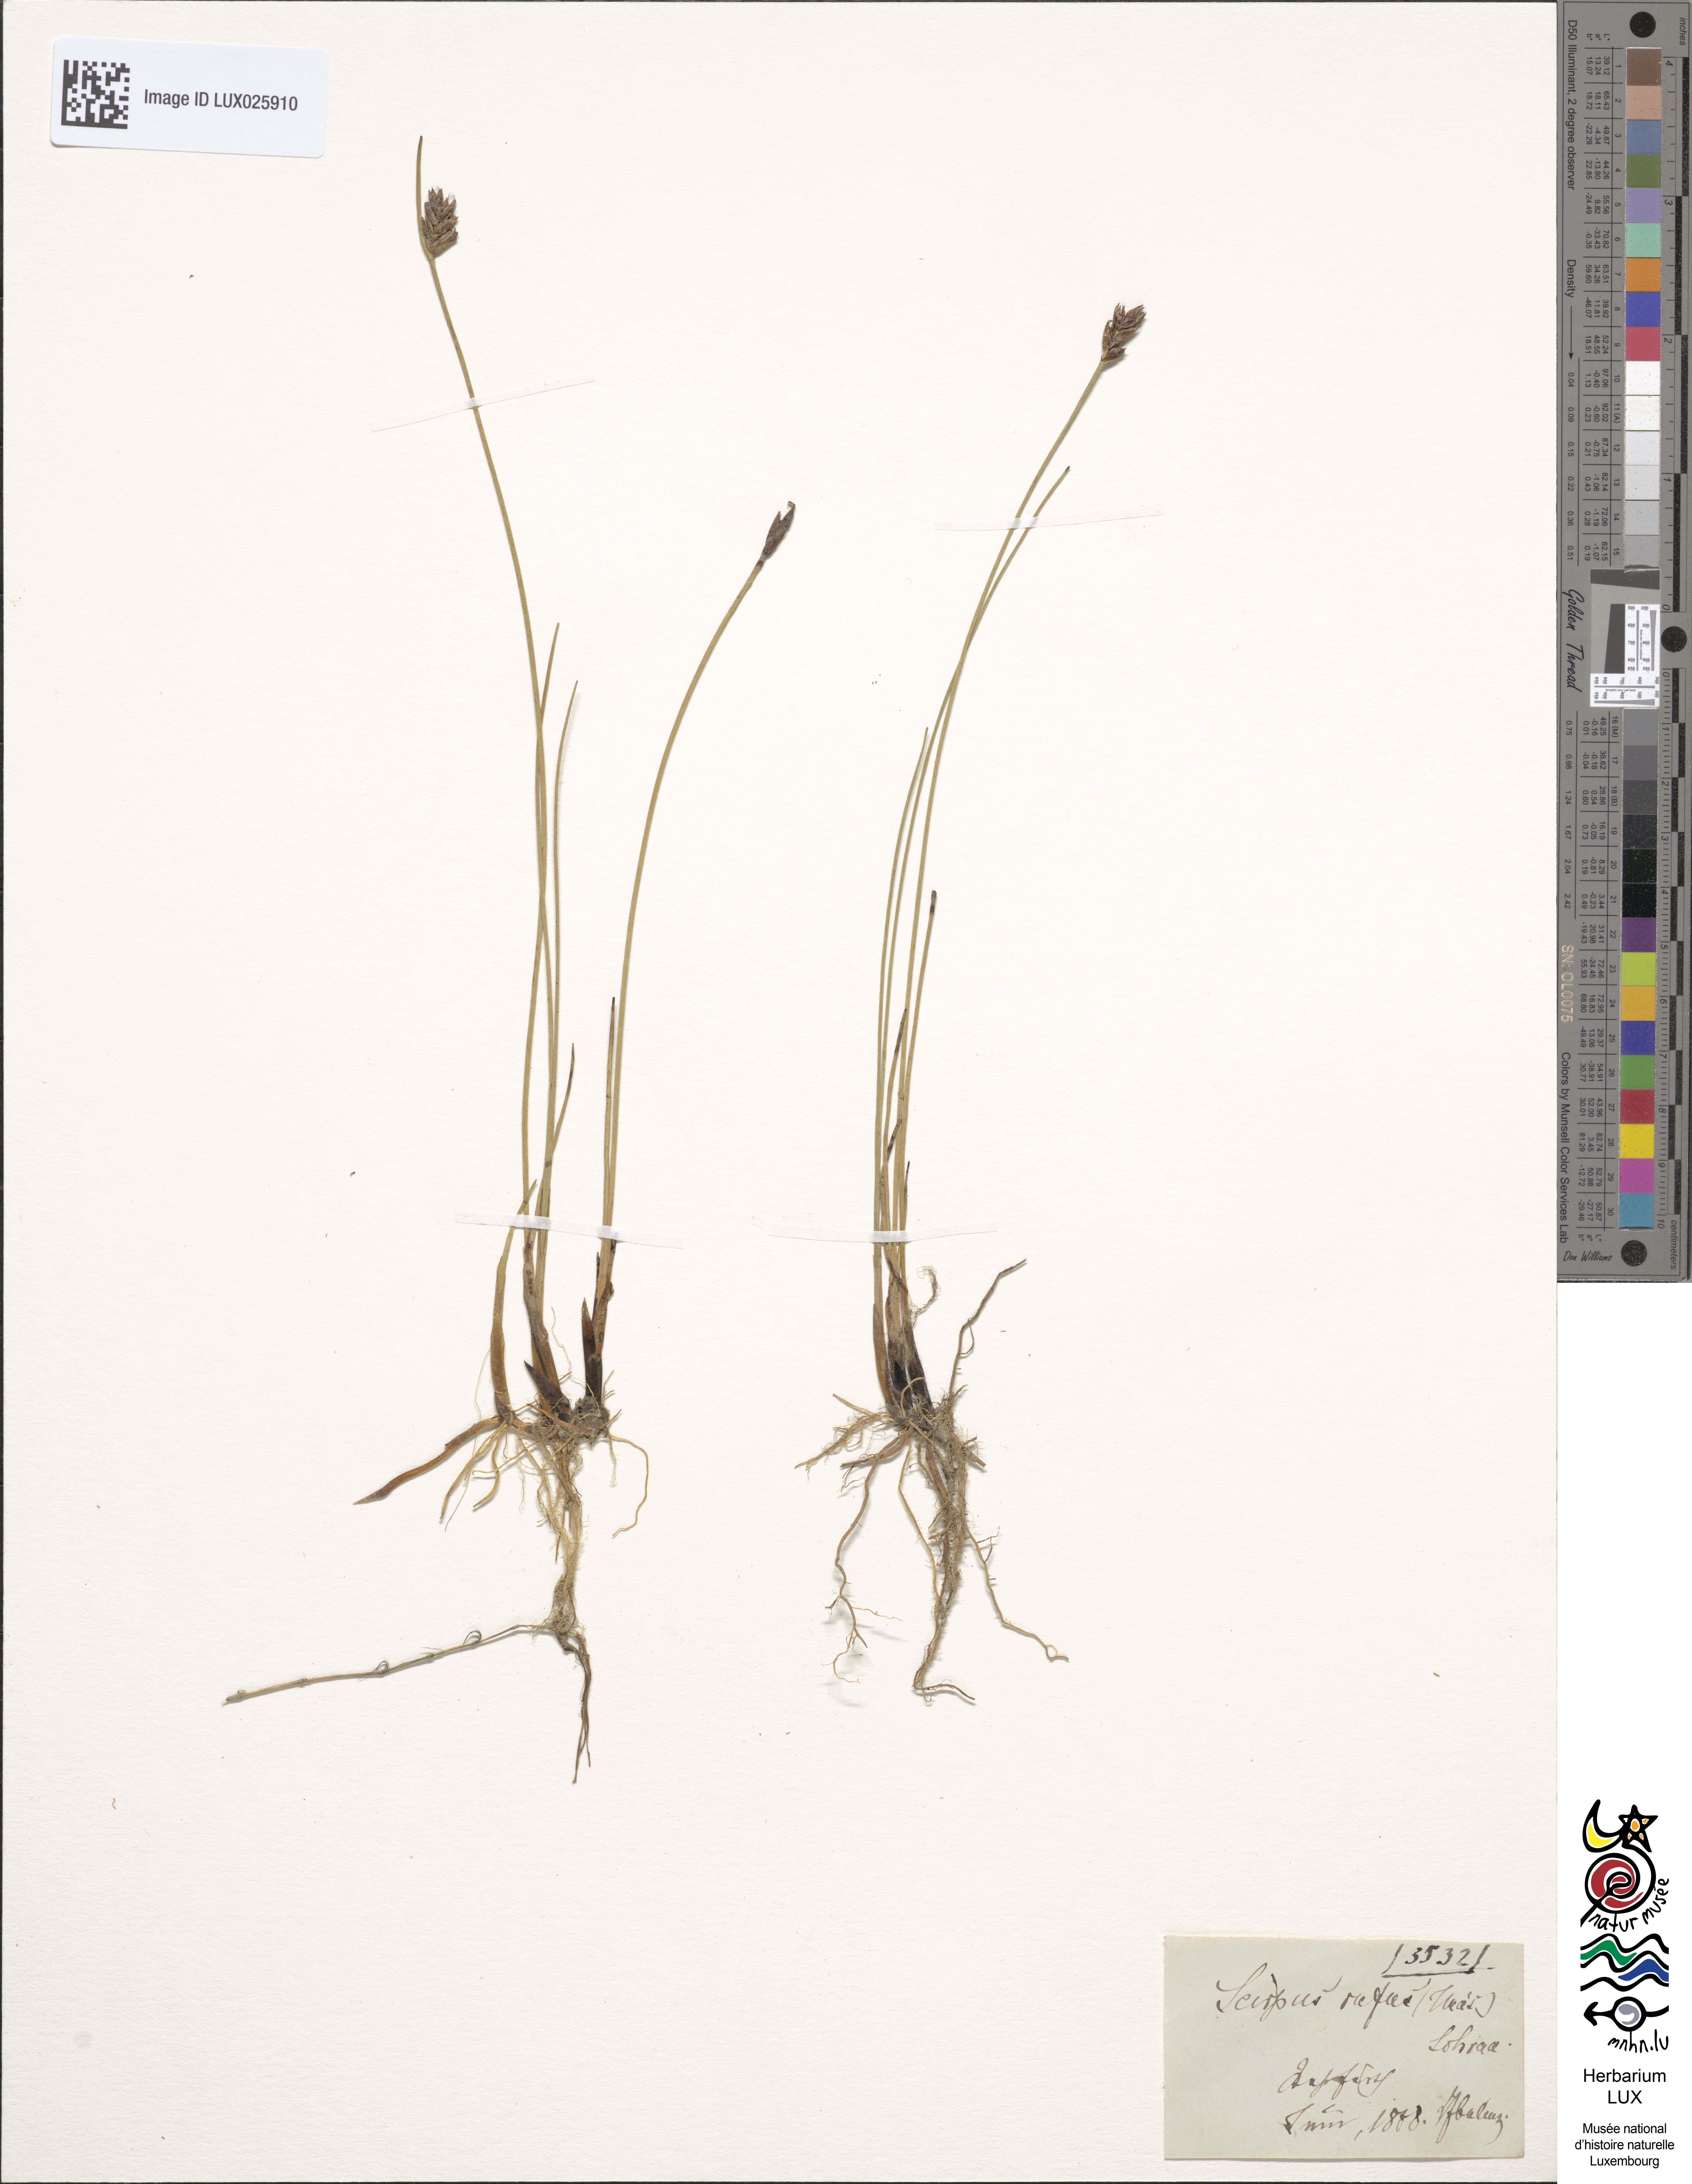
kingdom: Plantae
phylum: Tracheophyta
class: Liliopsida
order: Poales
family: Cyperaceae
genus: Blysmus
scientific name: Blysmus rufus
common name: Saltmarsh flat-sedge
